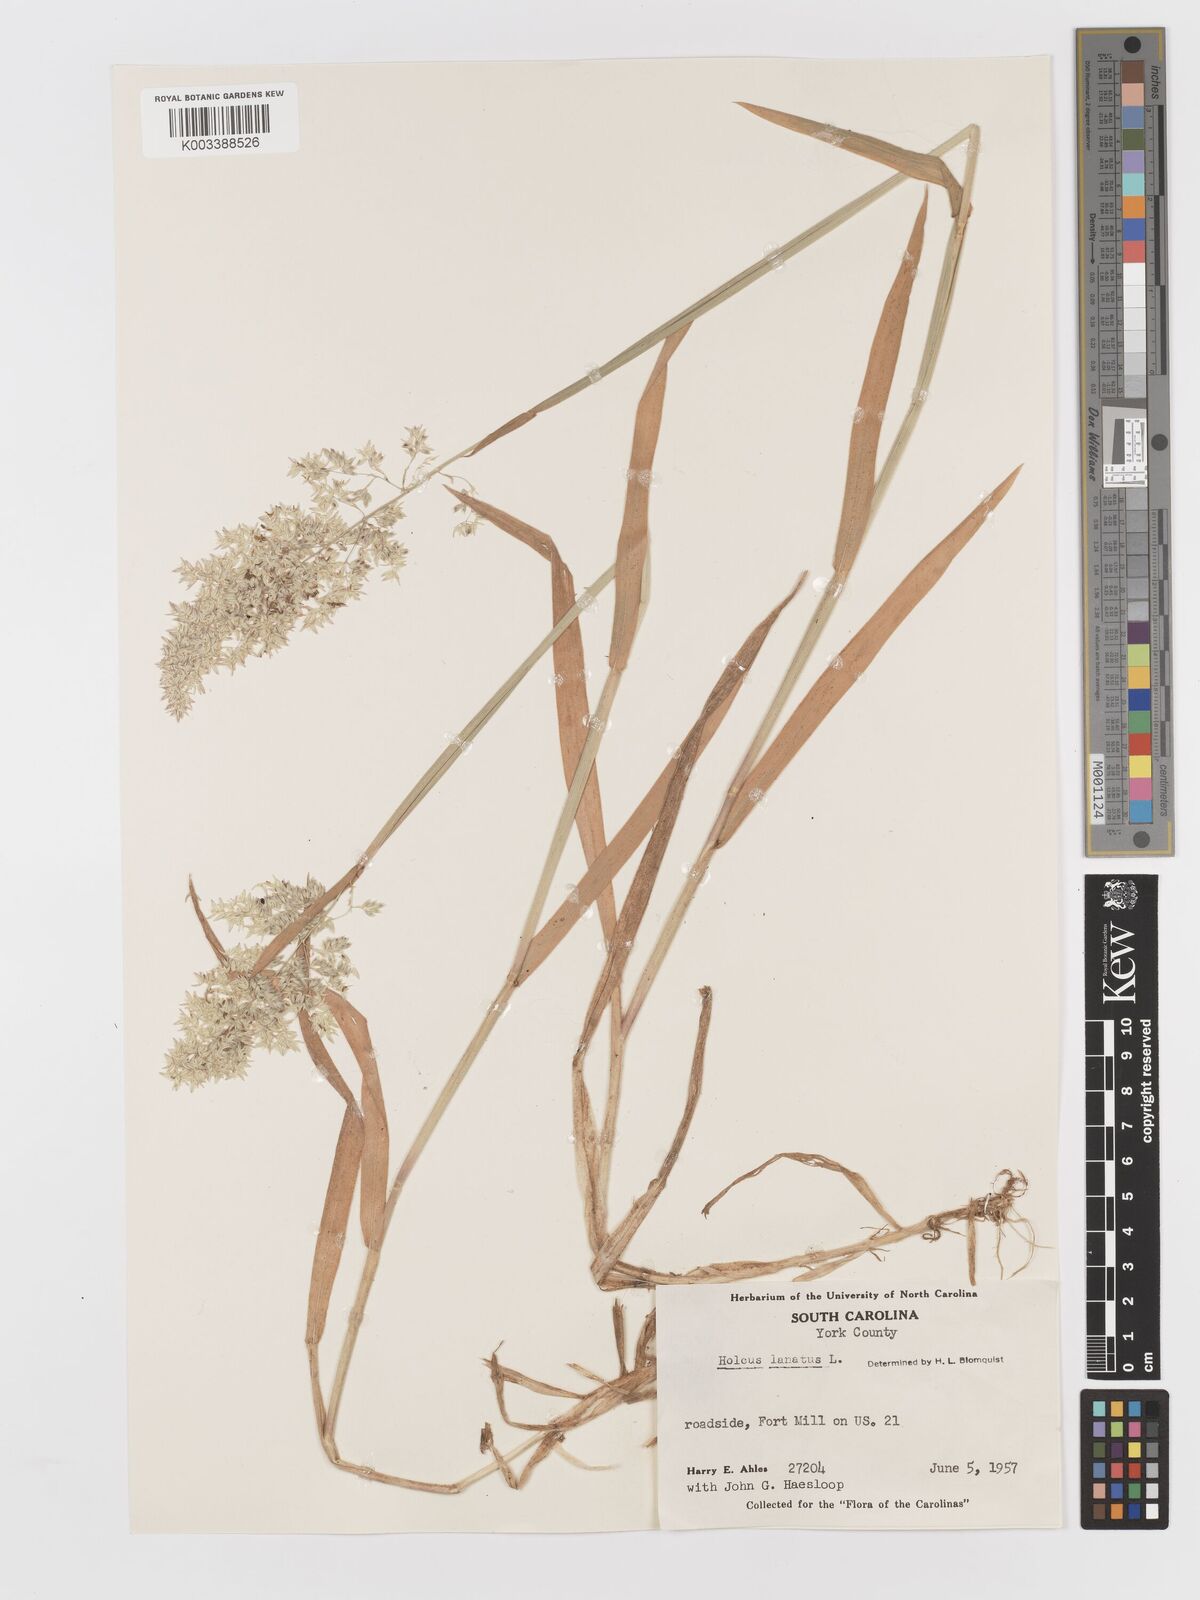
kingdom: Plantae
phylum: Tracheophyta
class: Liliopsida
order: Poales
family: Poaceae
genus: Holcus
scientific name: Holcus lanatus
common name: Yorkshire-fog
